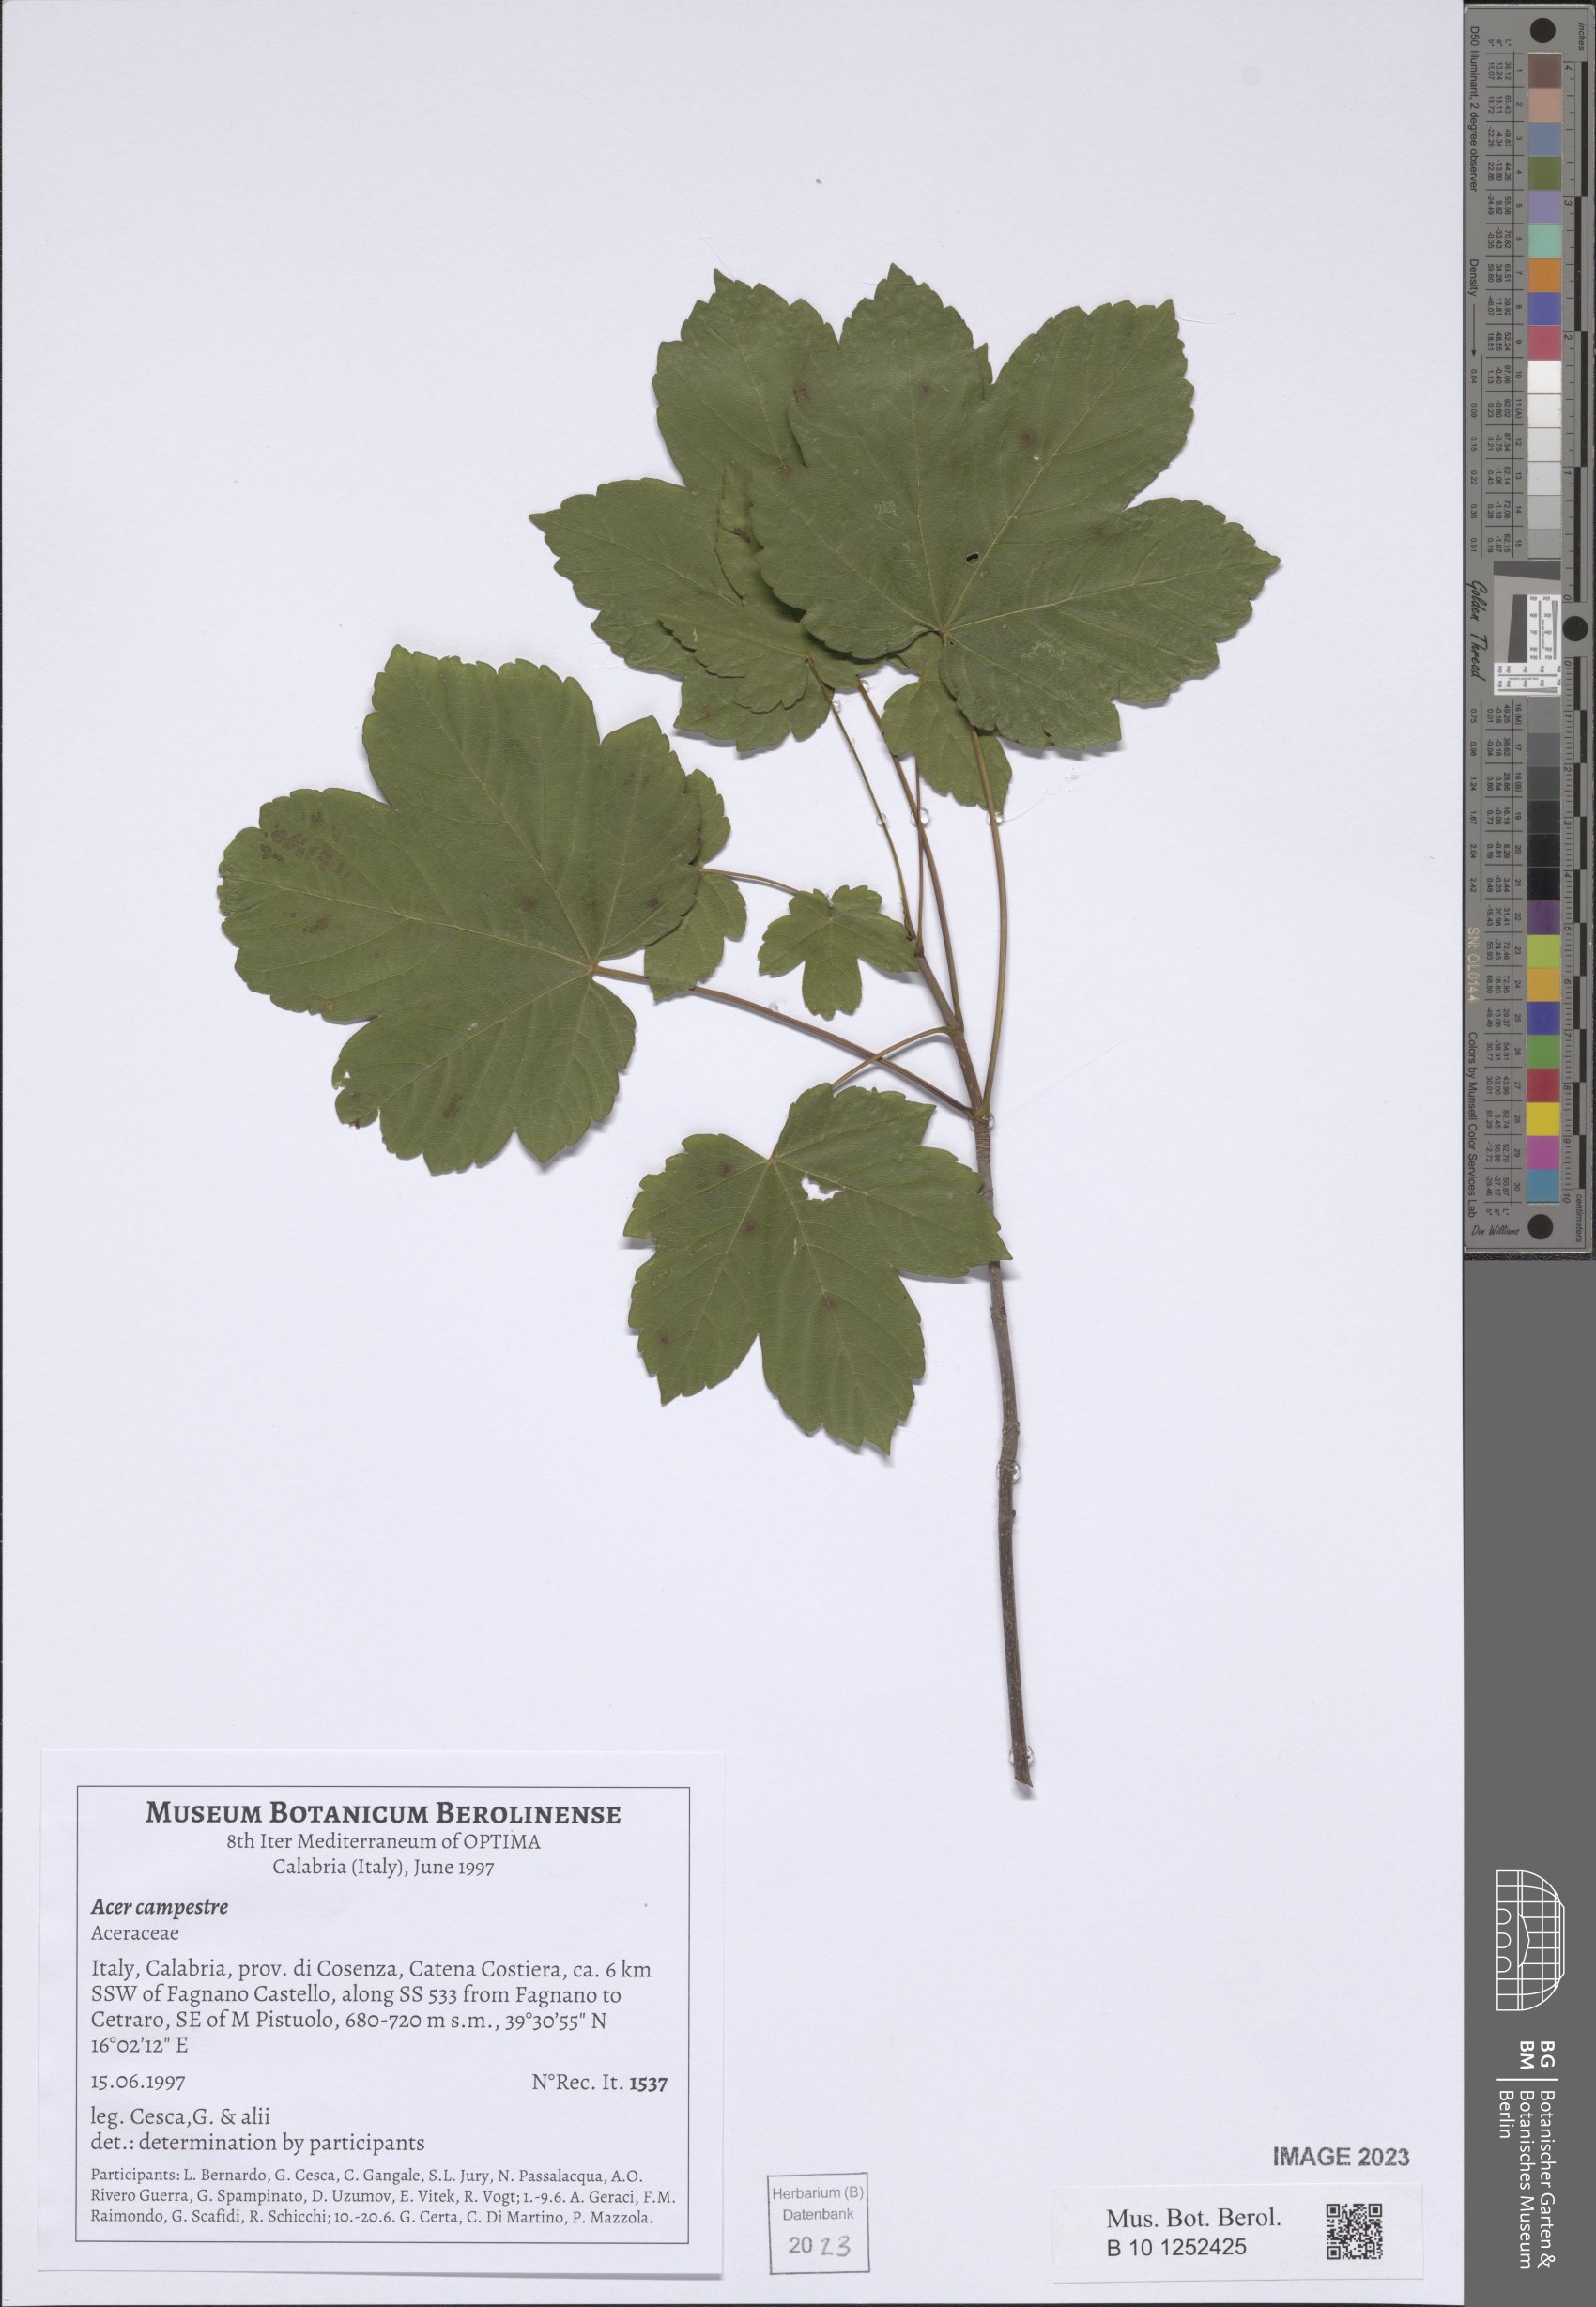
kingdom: Plantae
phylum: Tracheophyta
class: Magnoliopsida
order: Sapindales
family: Sapindaceae
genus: Acer
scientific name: Acer campestre
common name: Field maple
